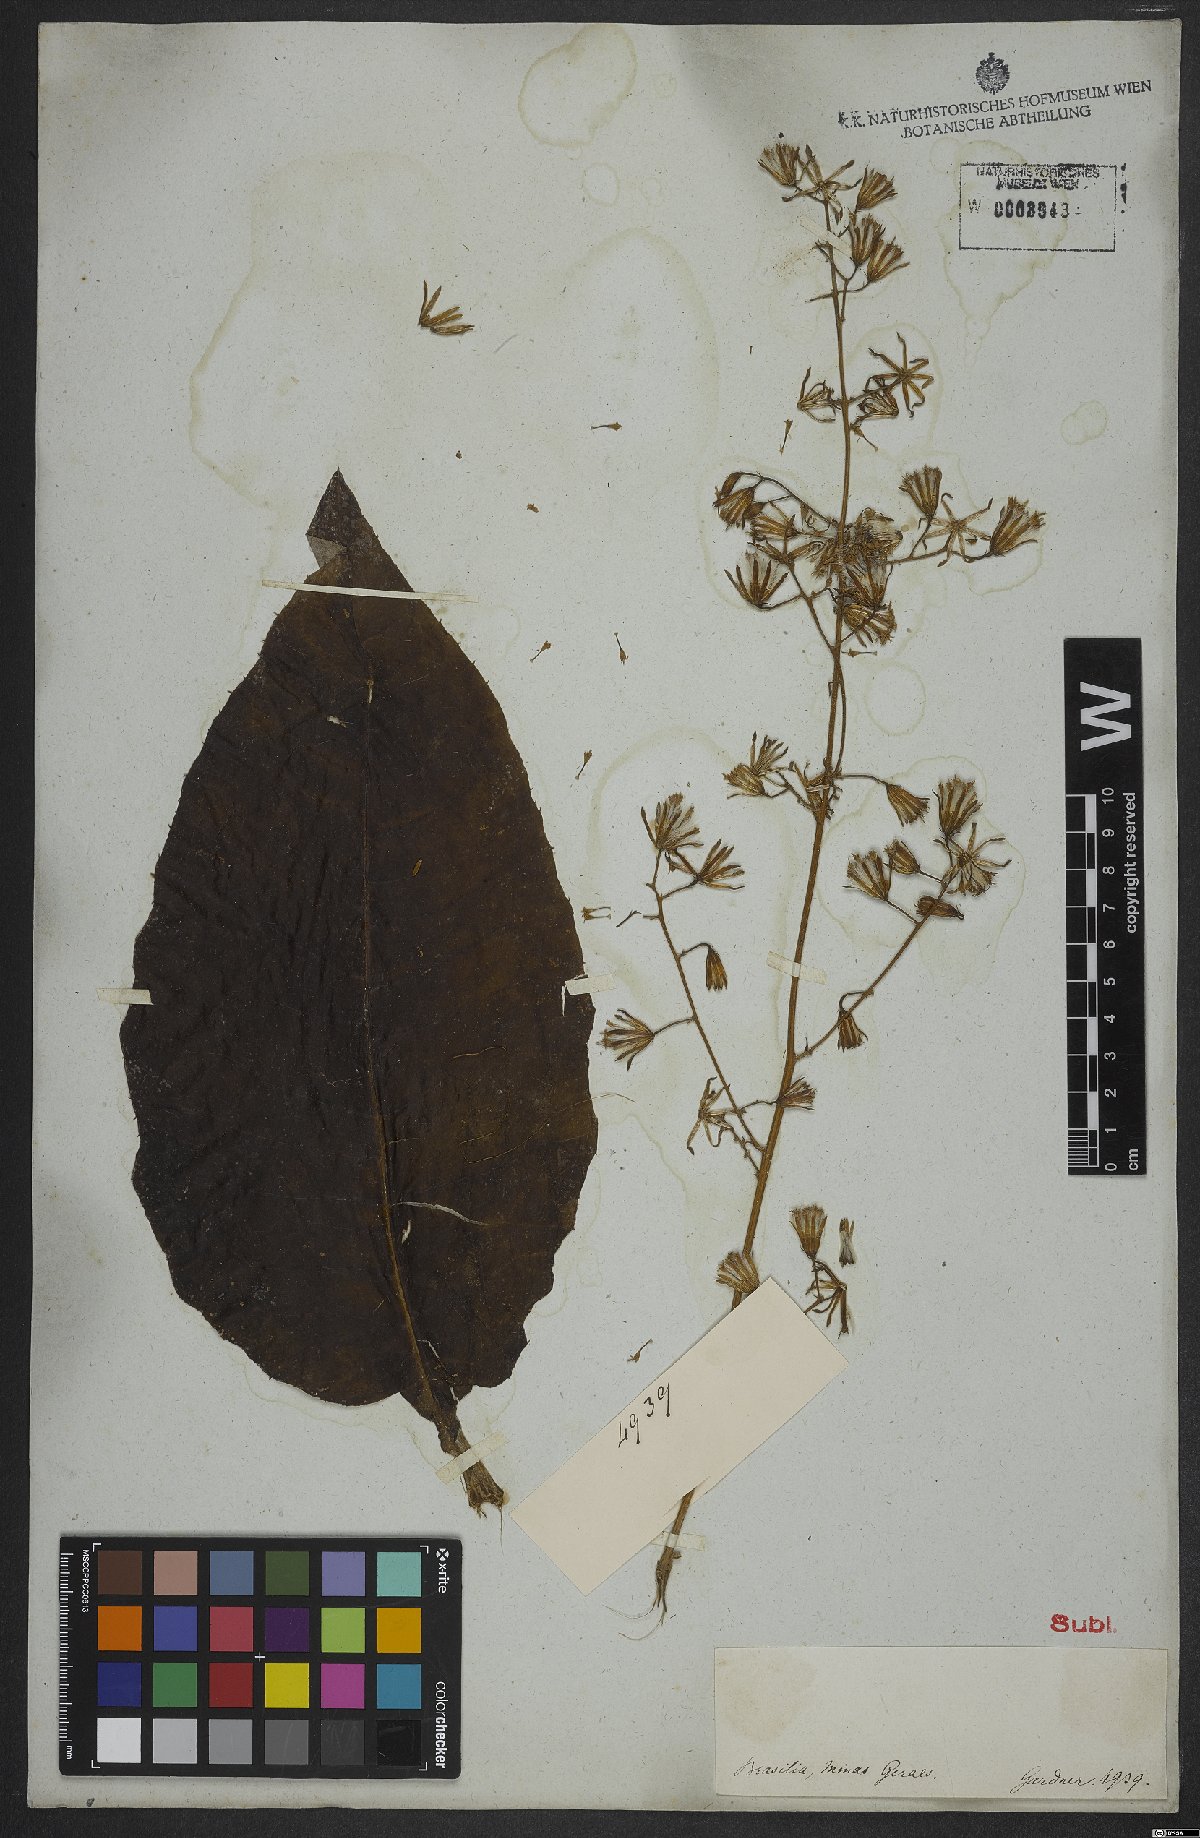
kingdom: Plantae
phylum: Tracheophyta
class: Magnoliopsida
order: Asterales
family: Asteraceae
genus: Trixis
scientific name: Trixis
